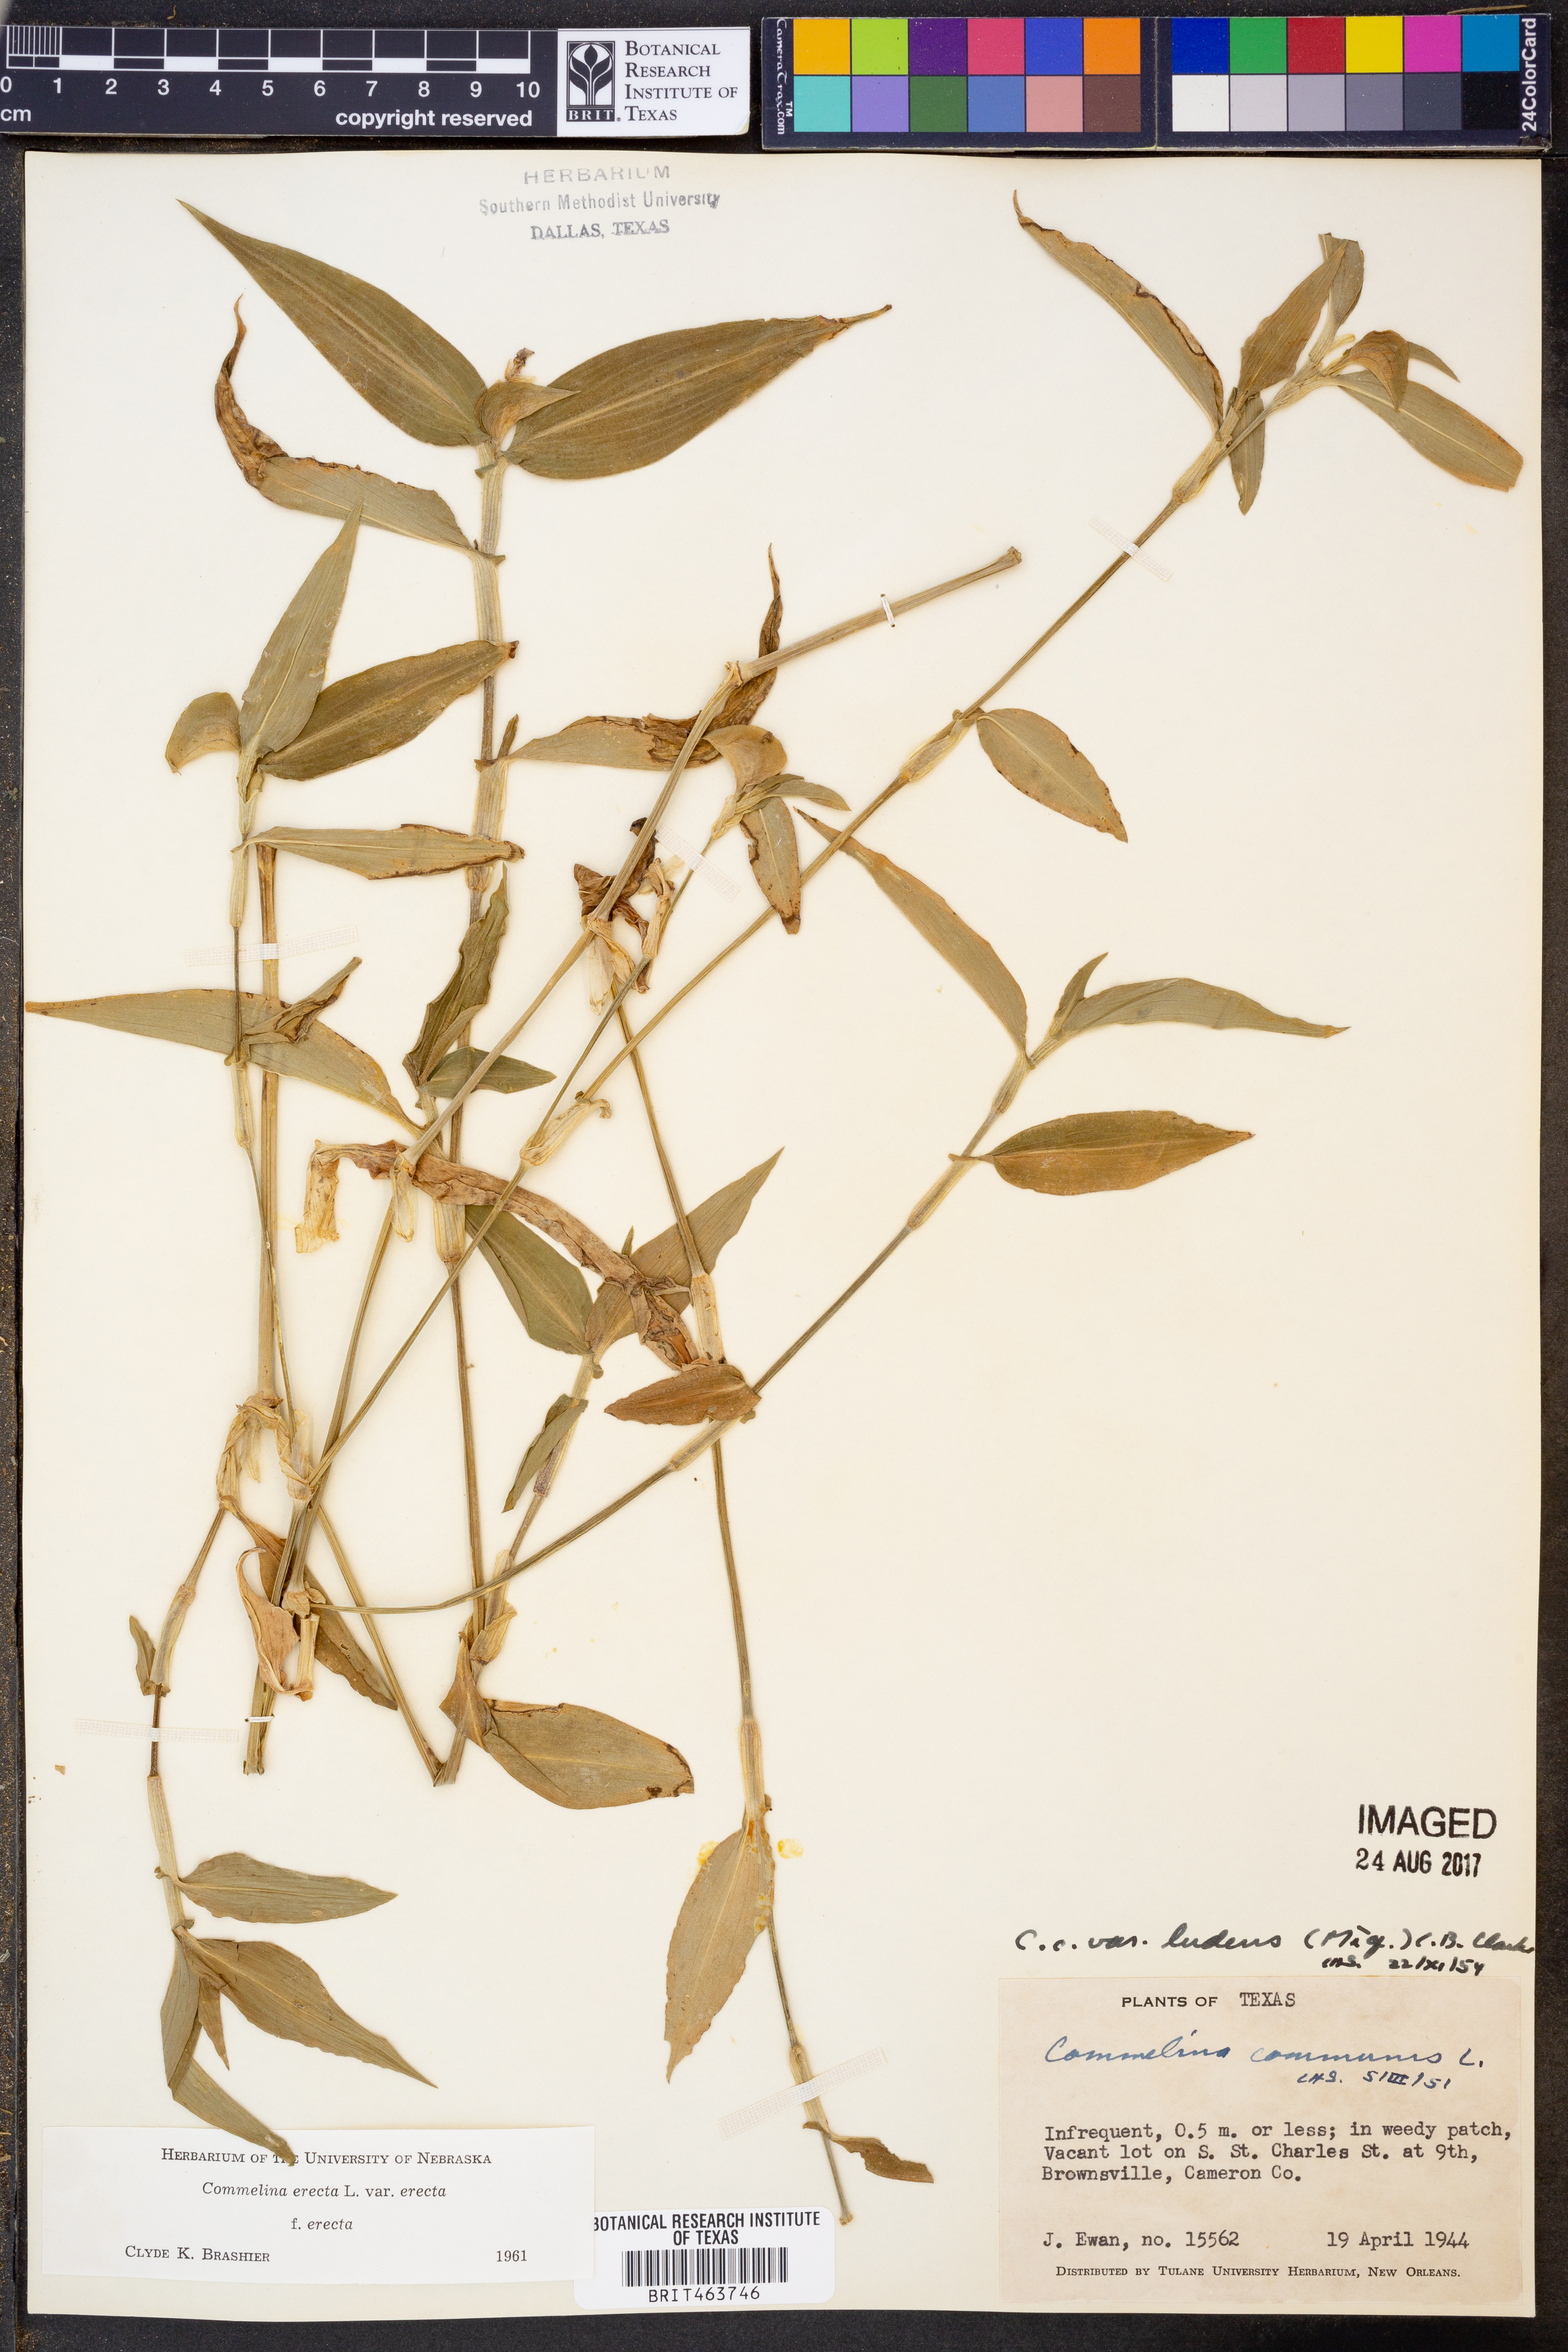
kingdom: Plantae
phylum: Tracheophyta
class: Liliopsida
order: Commelinales
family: Commelinaceae
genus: Commelina
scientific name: Commelina erecta
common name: Blousel blommetjie
